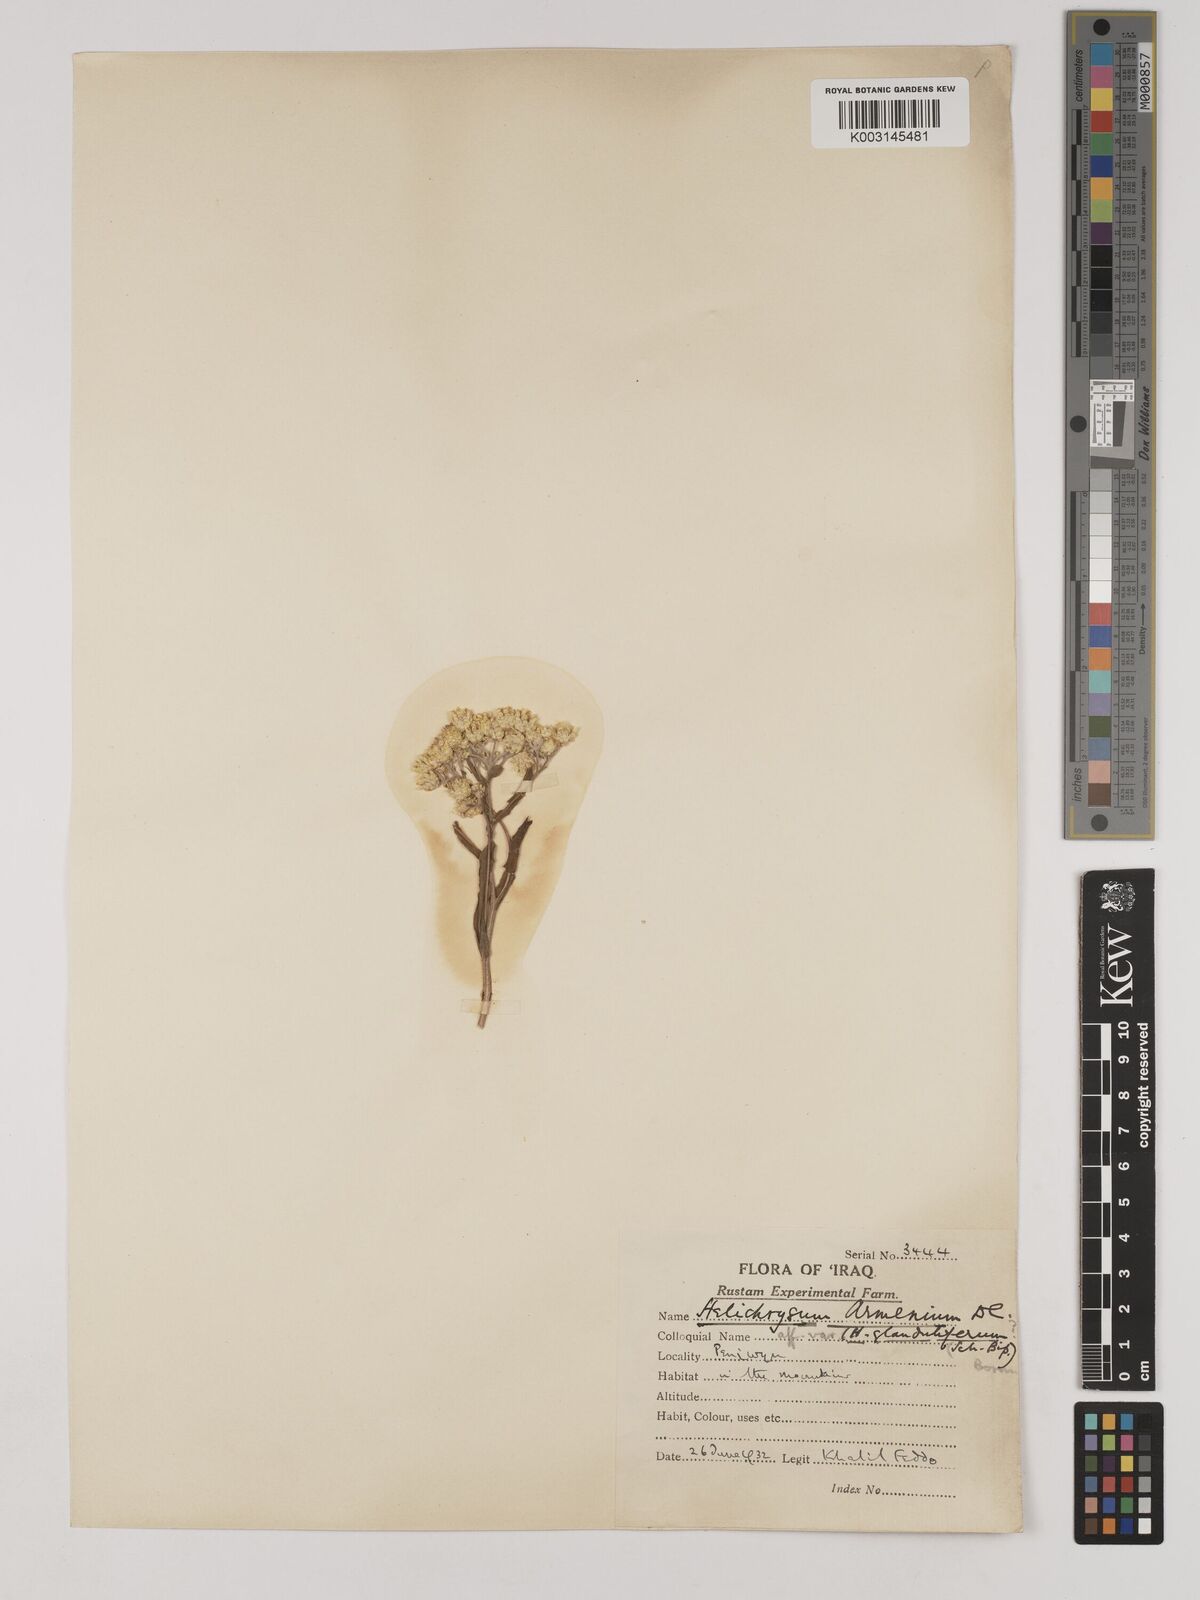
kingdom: Plantae
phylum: Tracheophyta
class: Magnoliopsida
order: Asterales
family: Asteraceae
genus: Helichrysum
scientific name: Helichrysum armenium
